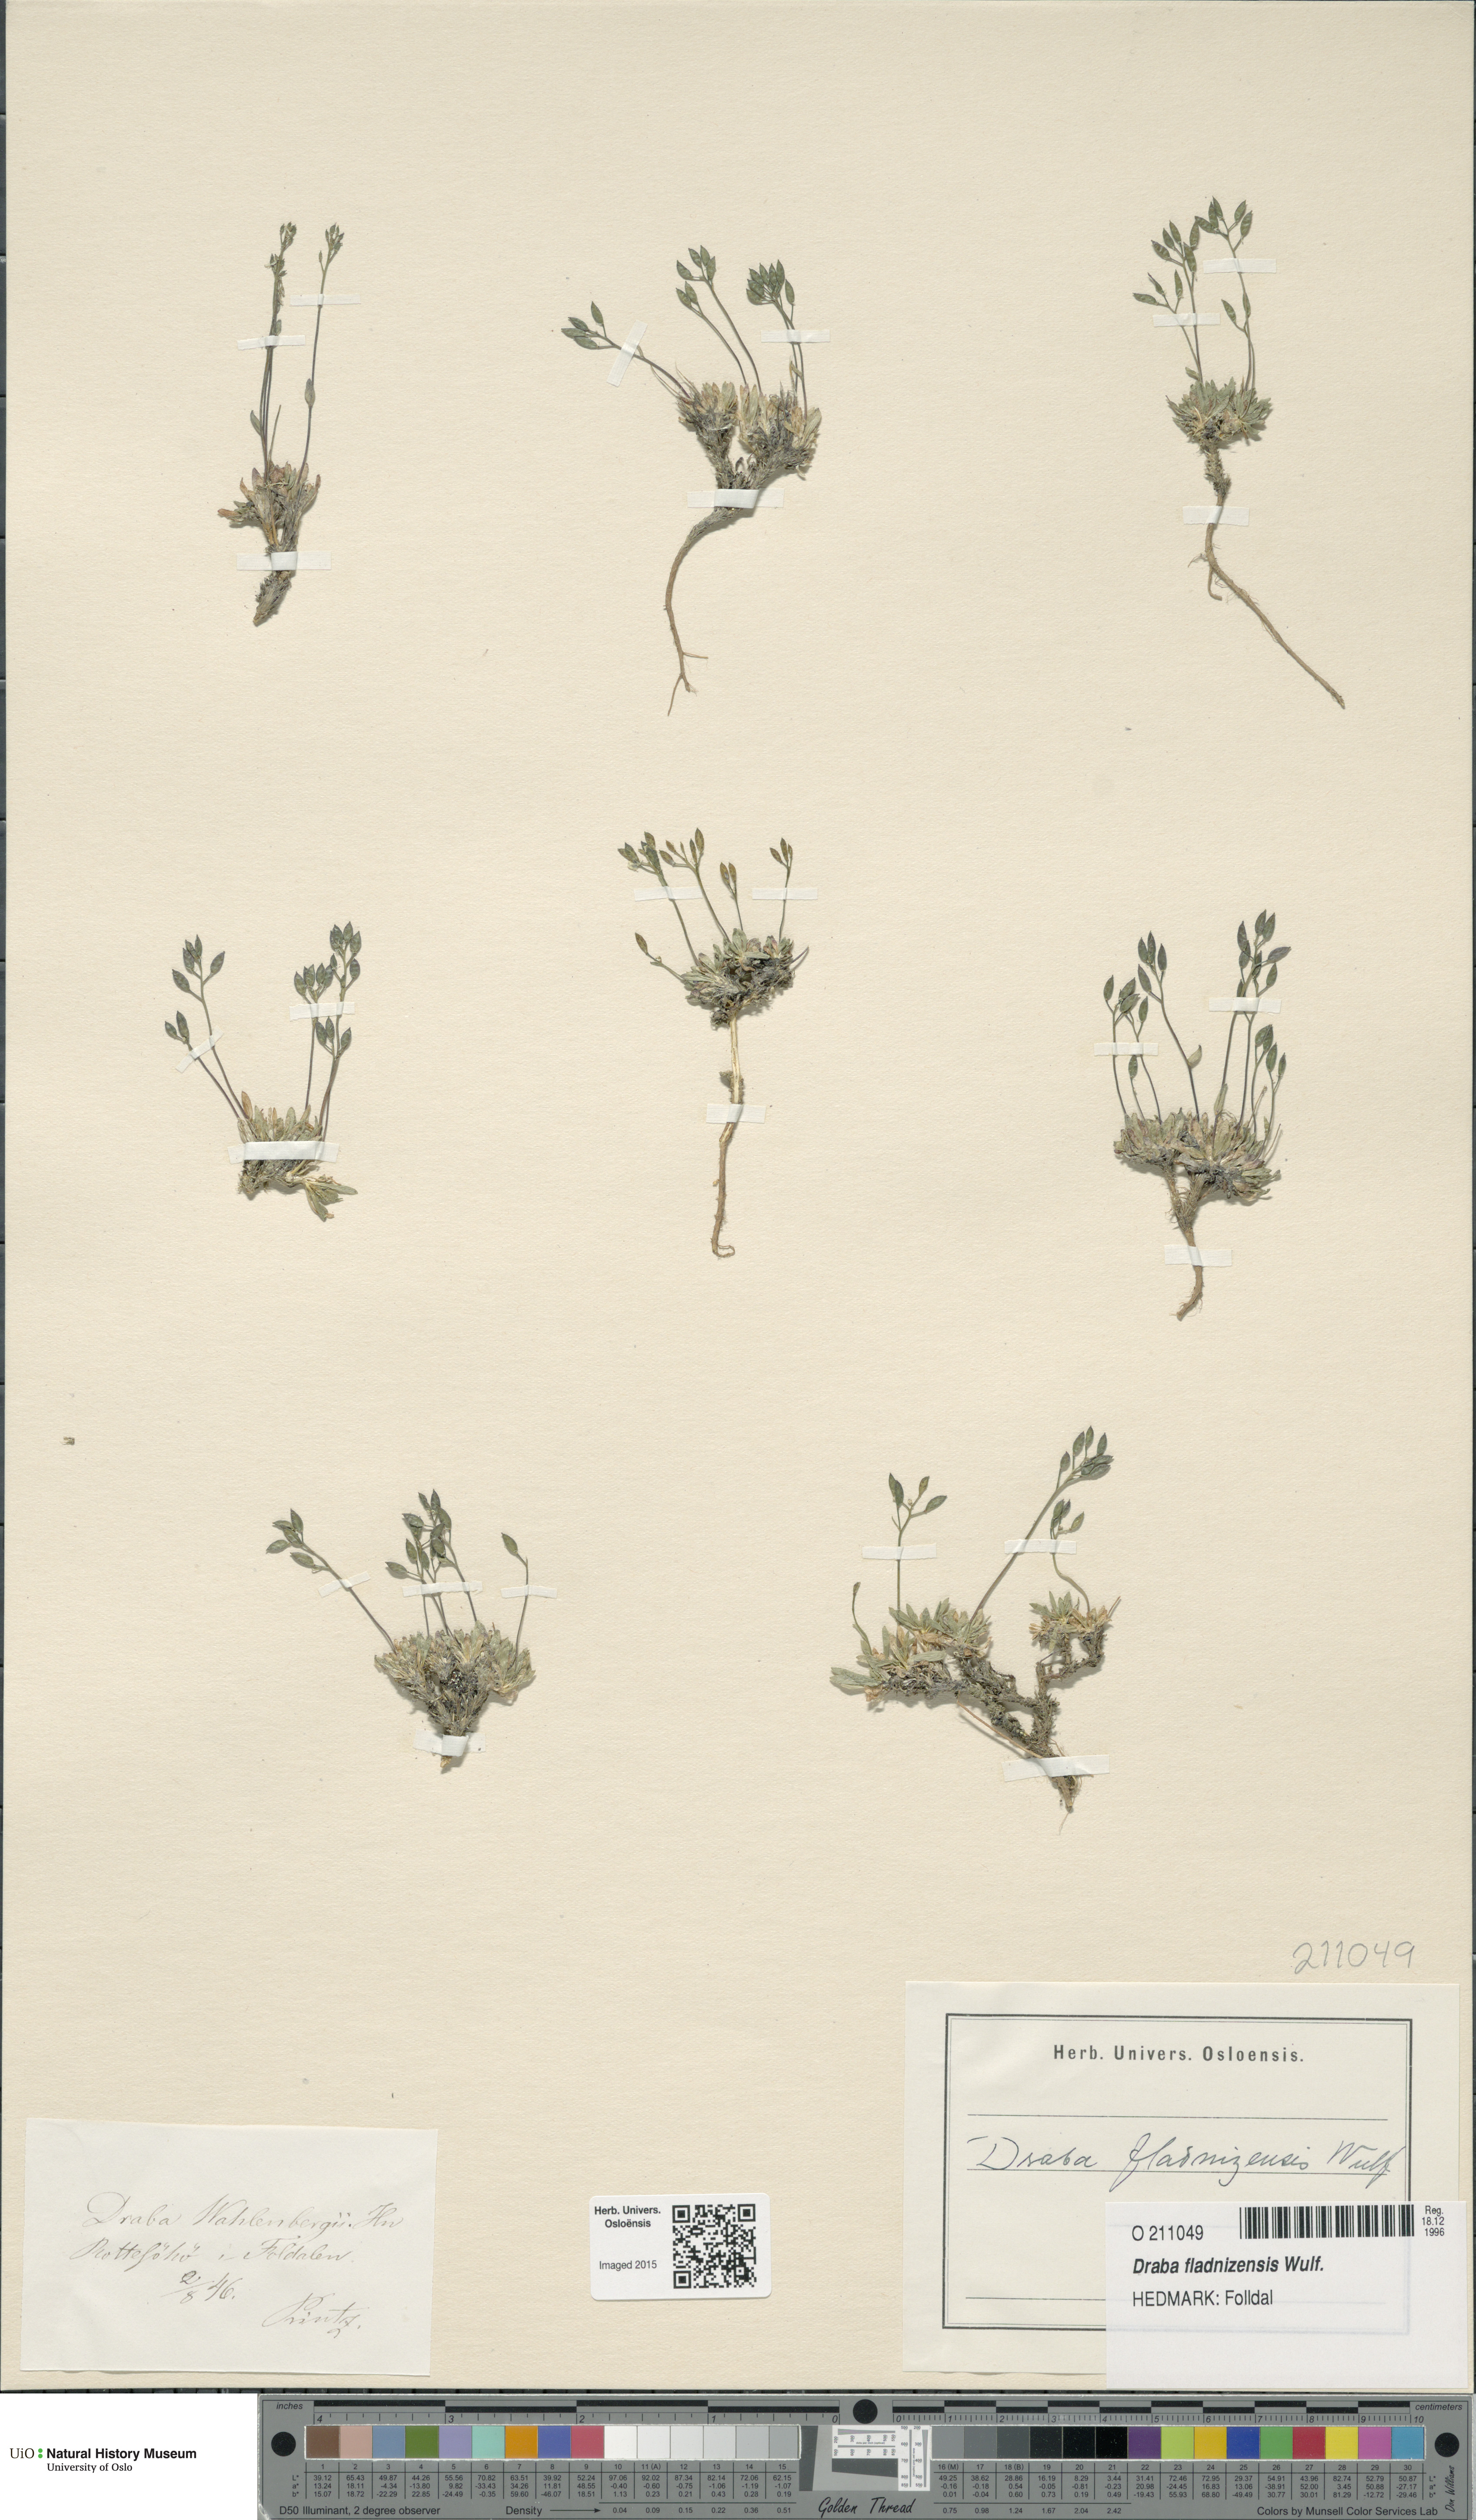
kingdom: Plantae
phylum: Tracheophyta
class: Magnoliopsida
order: Brassicales
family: Brassicaceae
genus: Draba
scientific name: Draba fladnizensis
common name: Austrian draba
